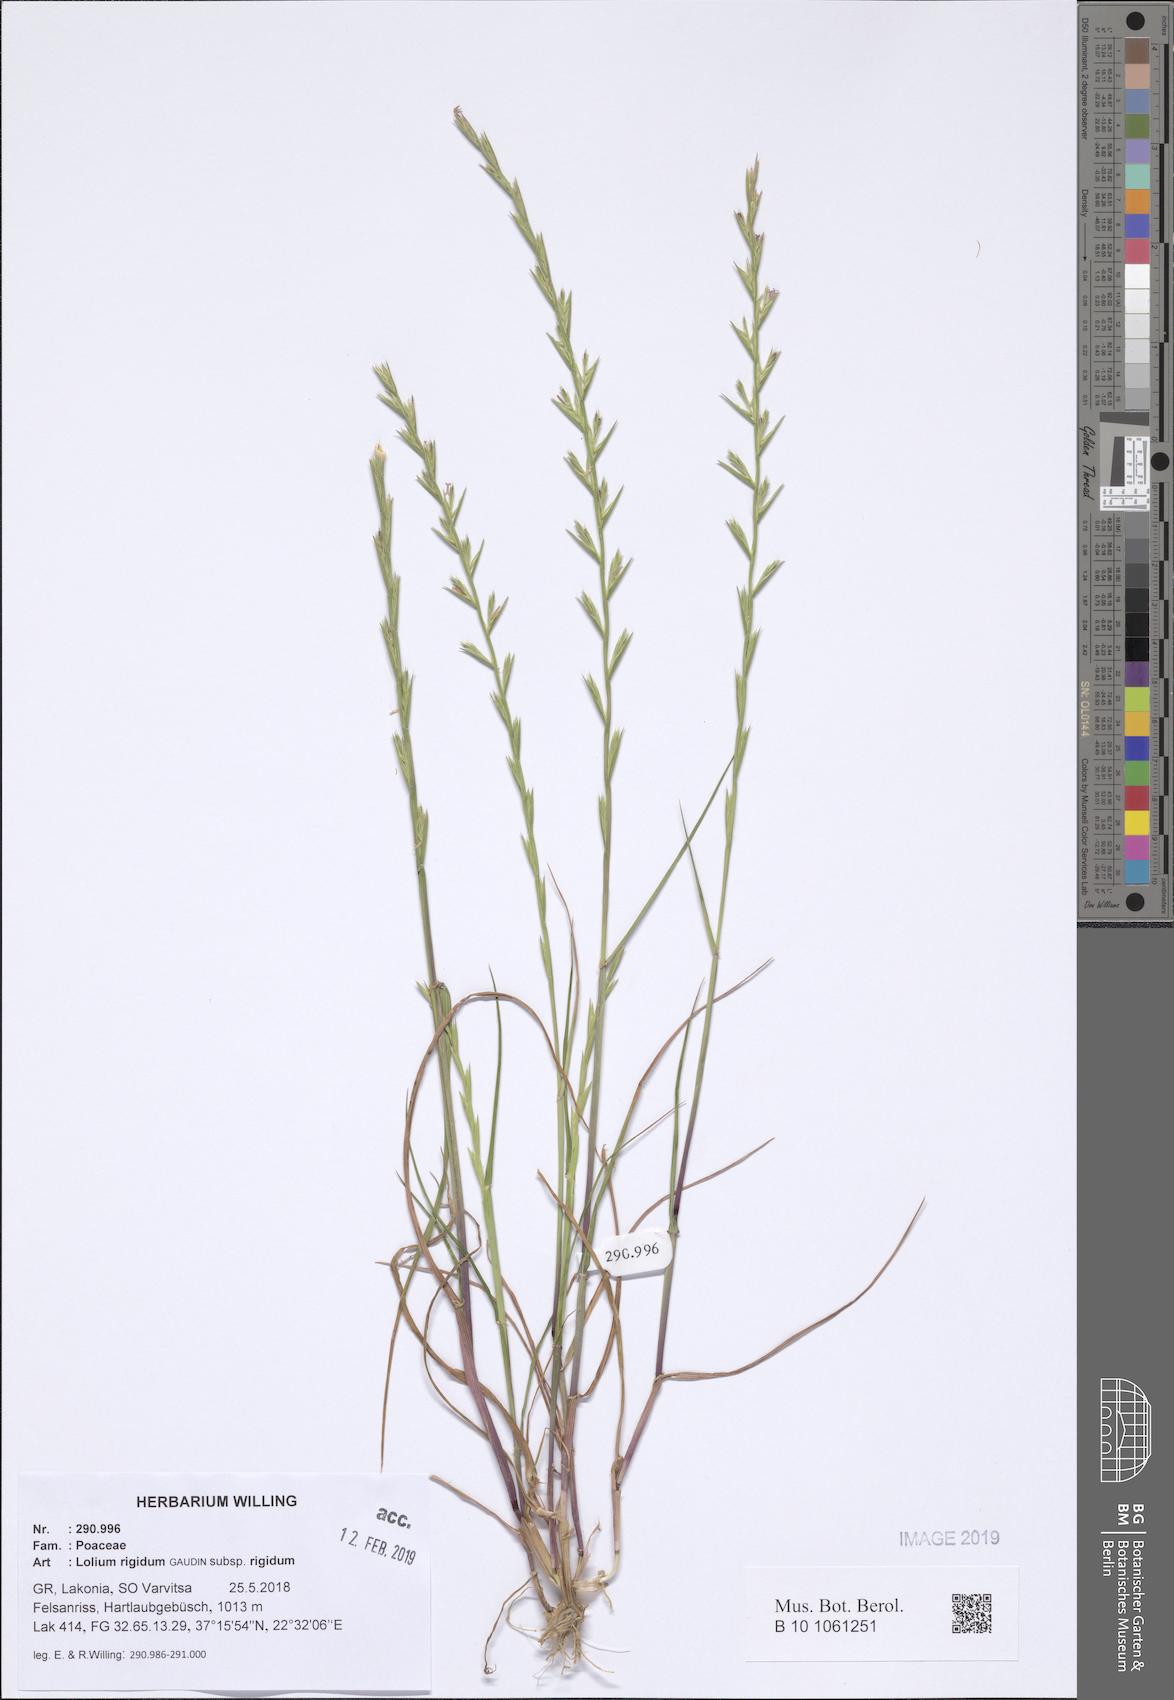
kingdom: Plantae
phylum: Tracheophyta
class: Liliopsida
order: Poales
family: Poaceae
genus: Lolium
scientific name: Lolium rigidum
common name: Wimmera ryegrass
